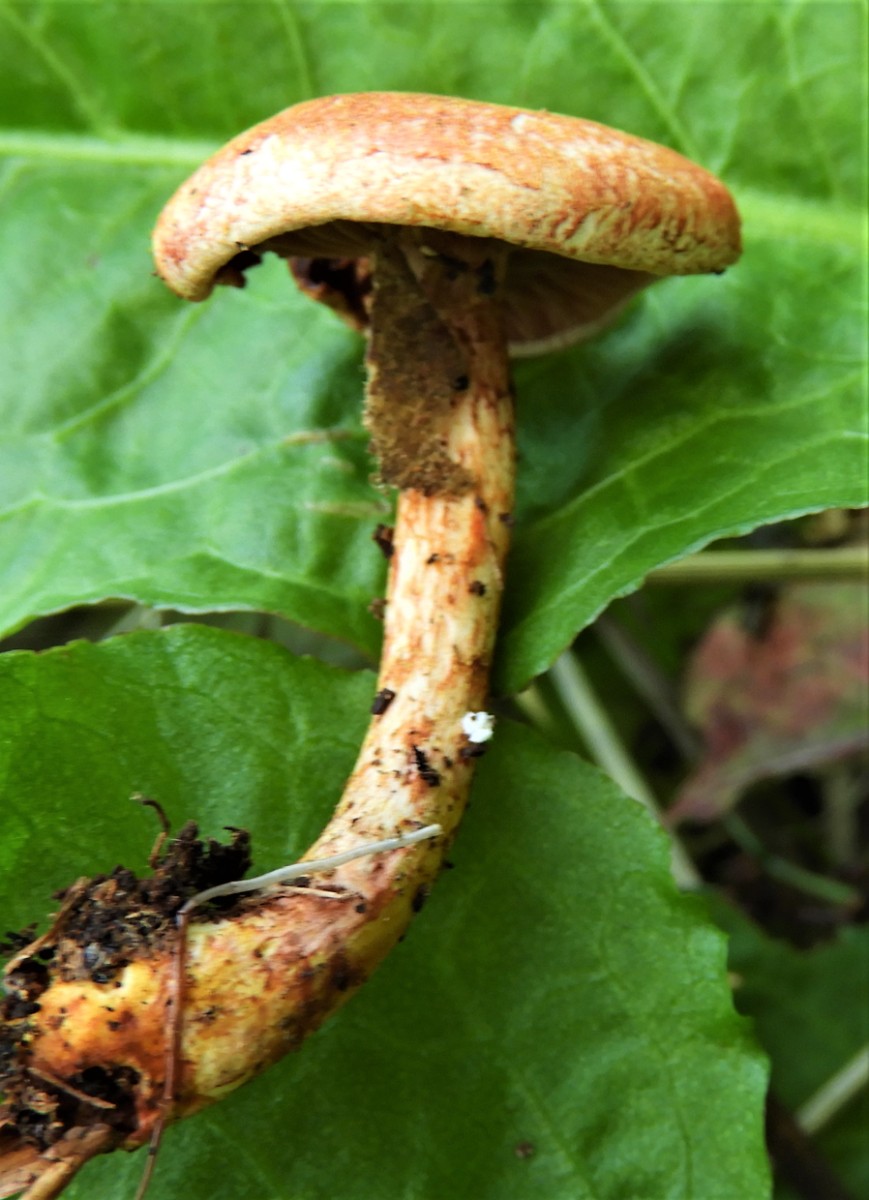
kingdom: Fungi
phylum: Basidiomycota
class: Agaricomycetes
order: Agaricales
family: Cortinariaceae
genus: Cortinarius
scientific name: Cortinarius bolaris
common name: cinnoberskællet slørhat
